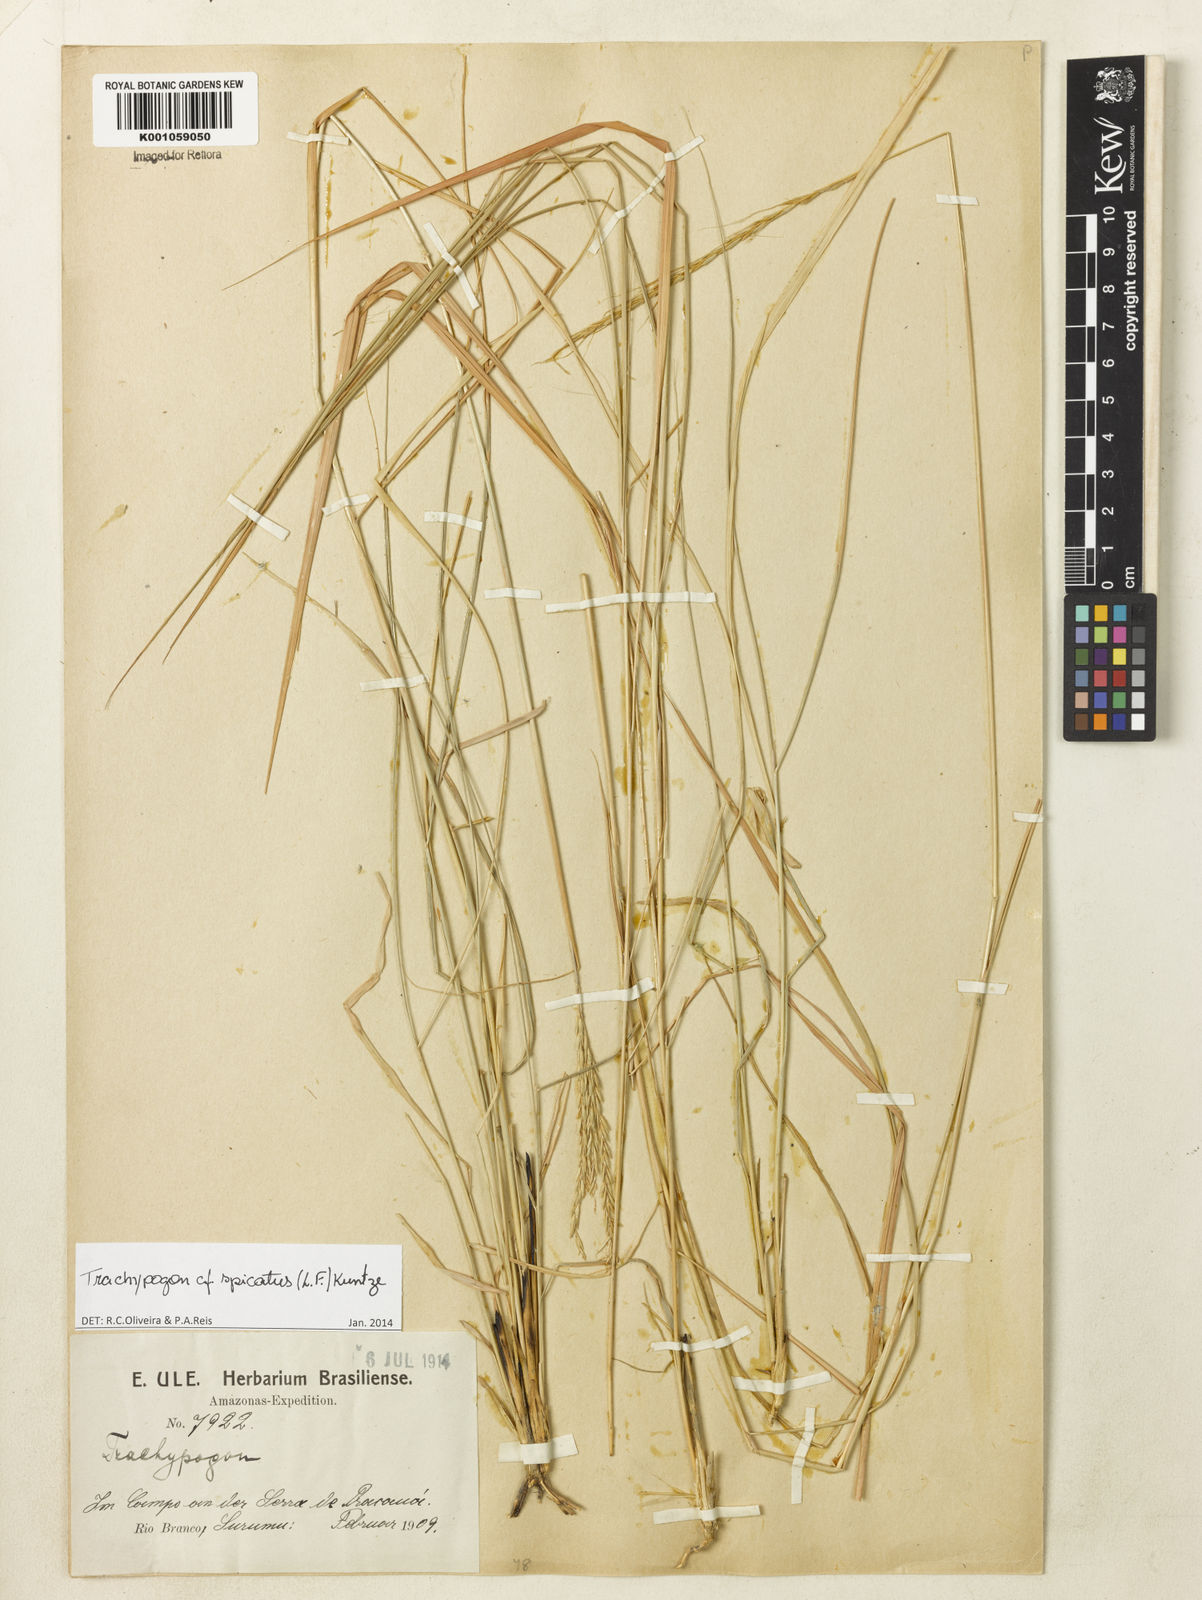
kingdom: Plantae
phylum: Tracheophyta
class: Liliopsida
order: Poales
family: Poaceae
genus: Trachypogon
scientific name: Trachypogon spicatus
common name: Crinkle-awn
